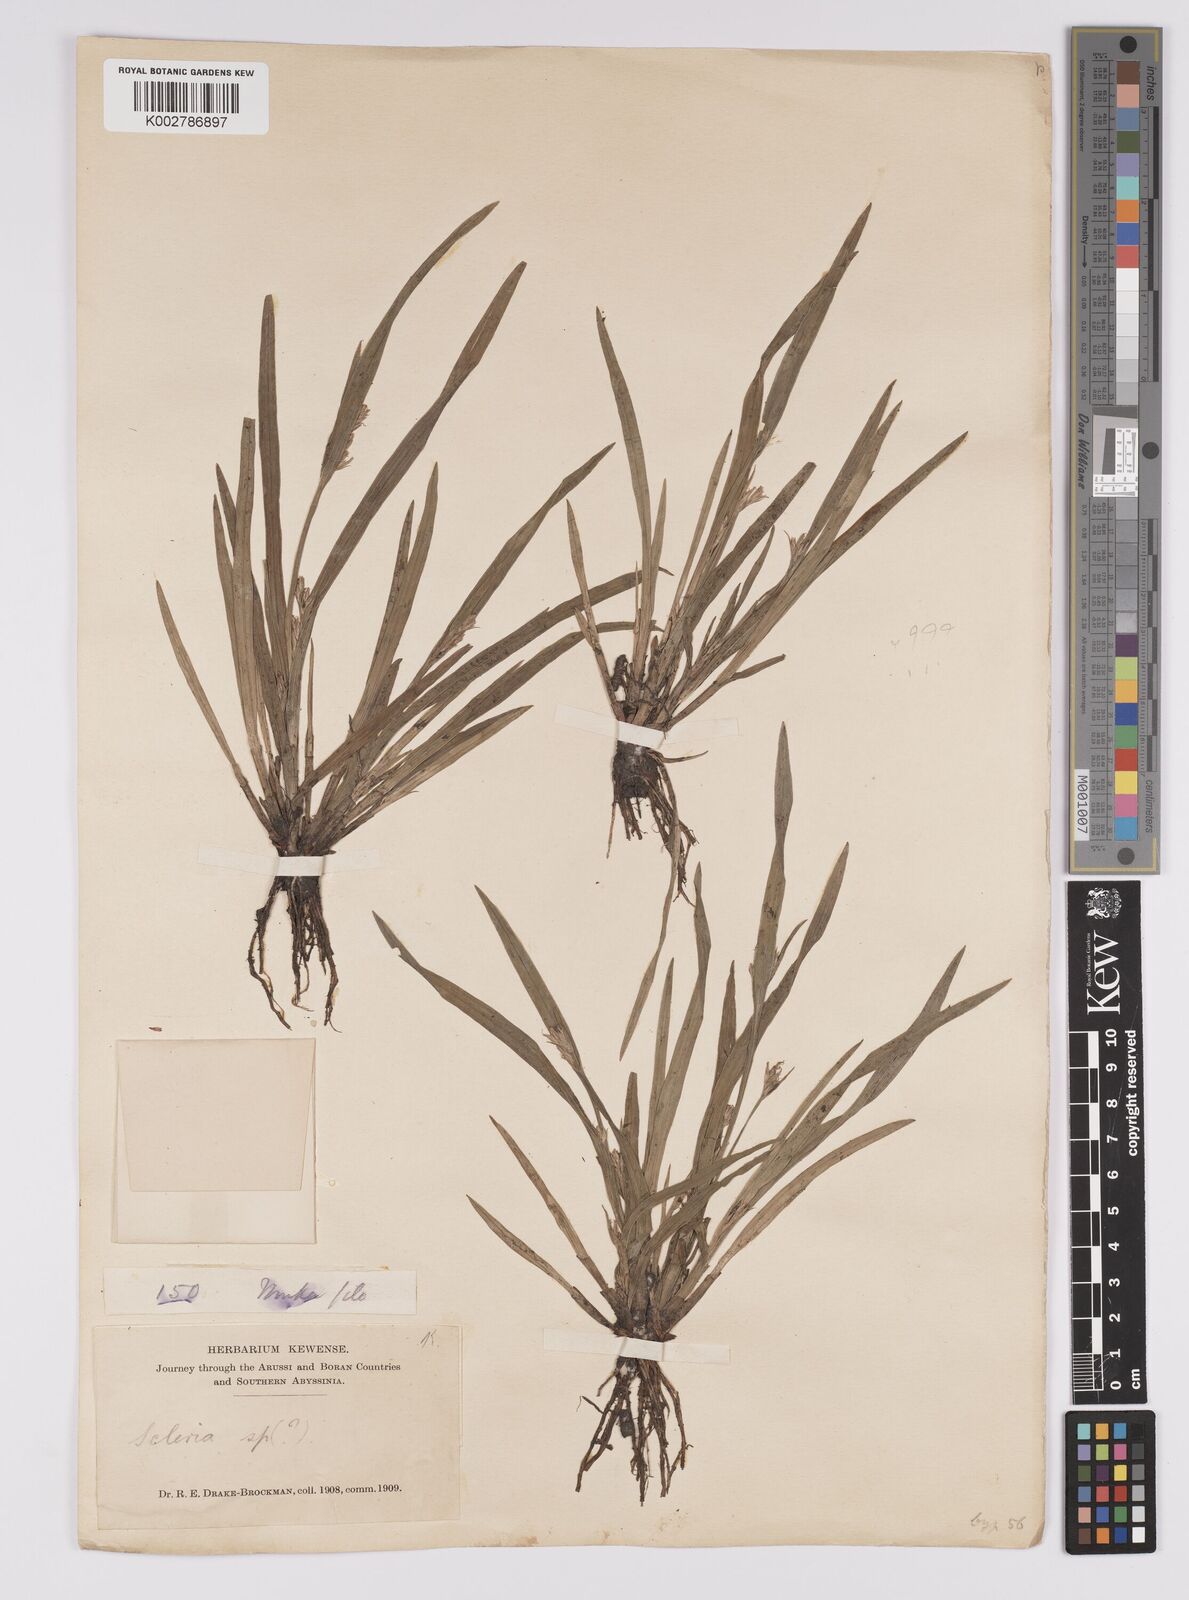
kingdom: Plantae
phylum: Tracheophyta
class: Liliopsida
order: Poales
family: Cyperaceae
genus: Scleria
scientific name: Scleria
